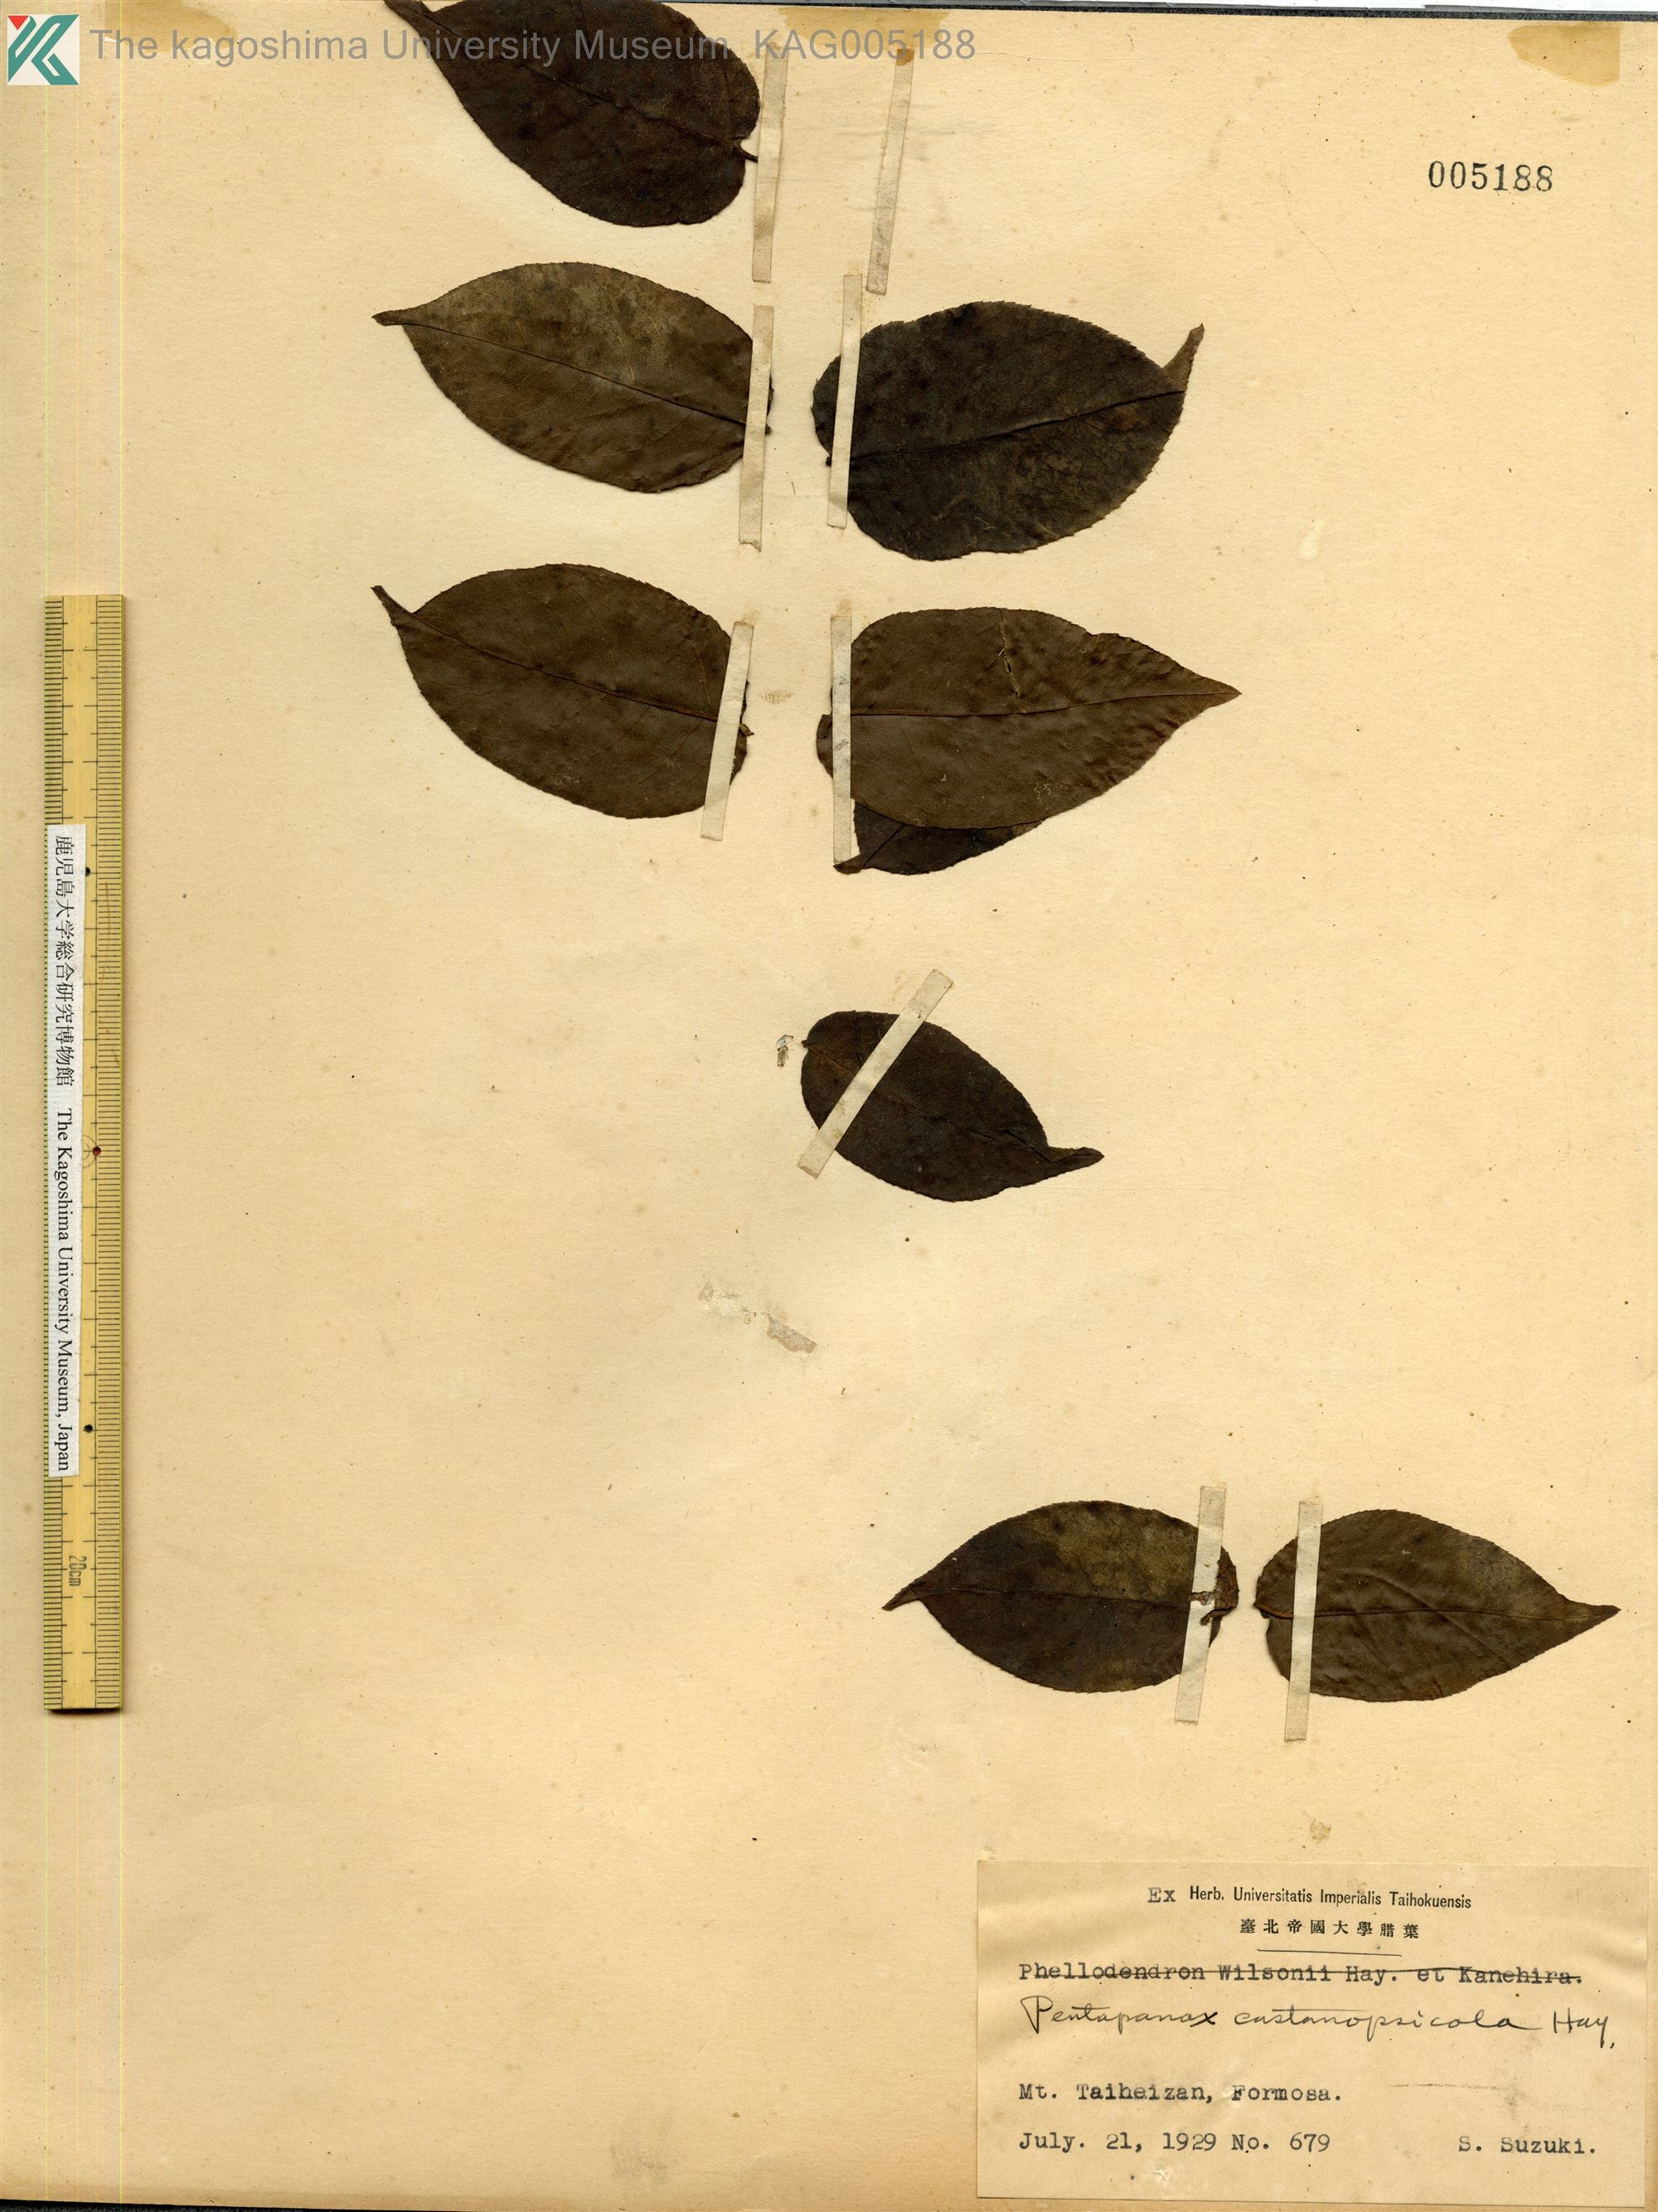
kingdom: Plantae
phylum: Tracheophyta
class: Magnoliopsida
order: Apiales
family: Araliaceae
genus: Aralia
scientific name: Aralia castanopsiscola
